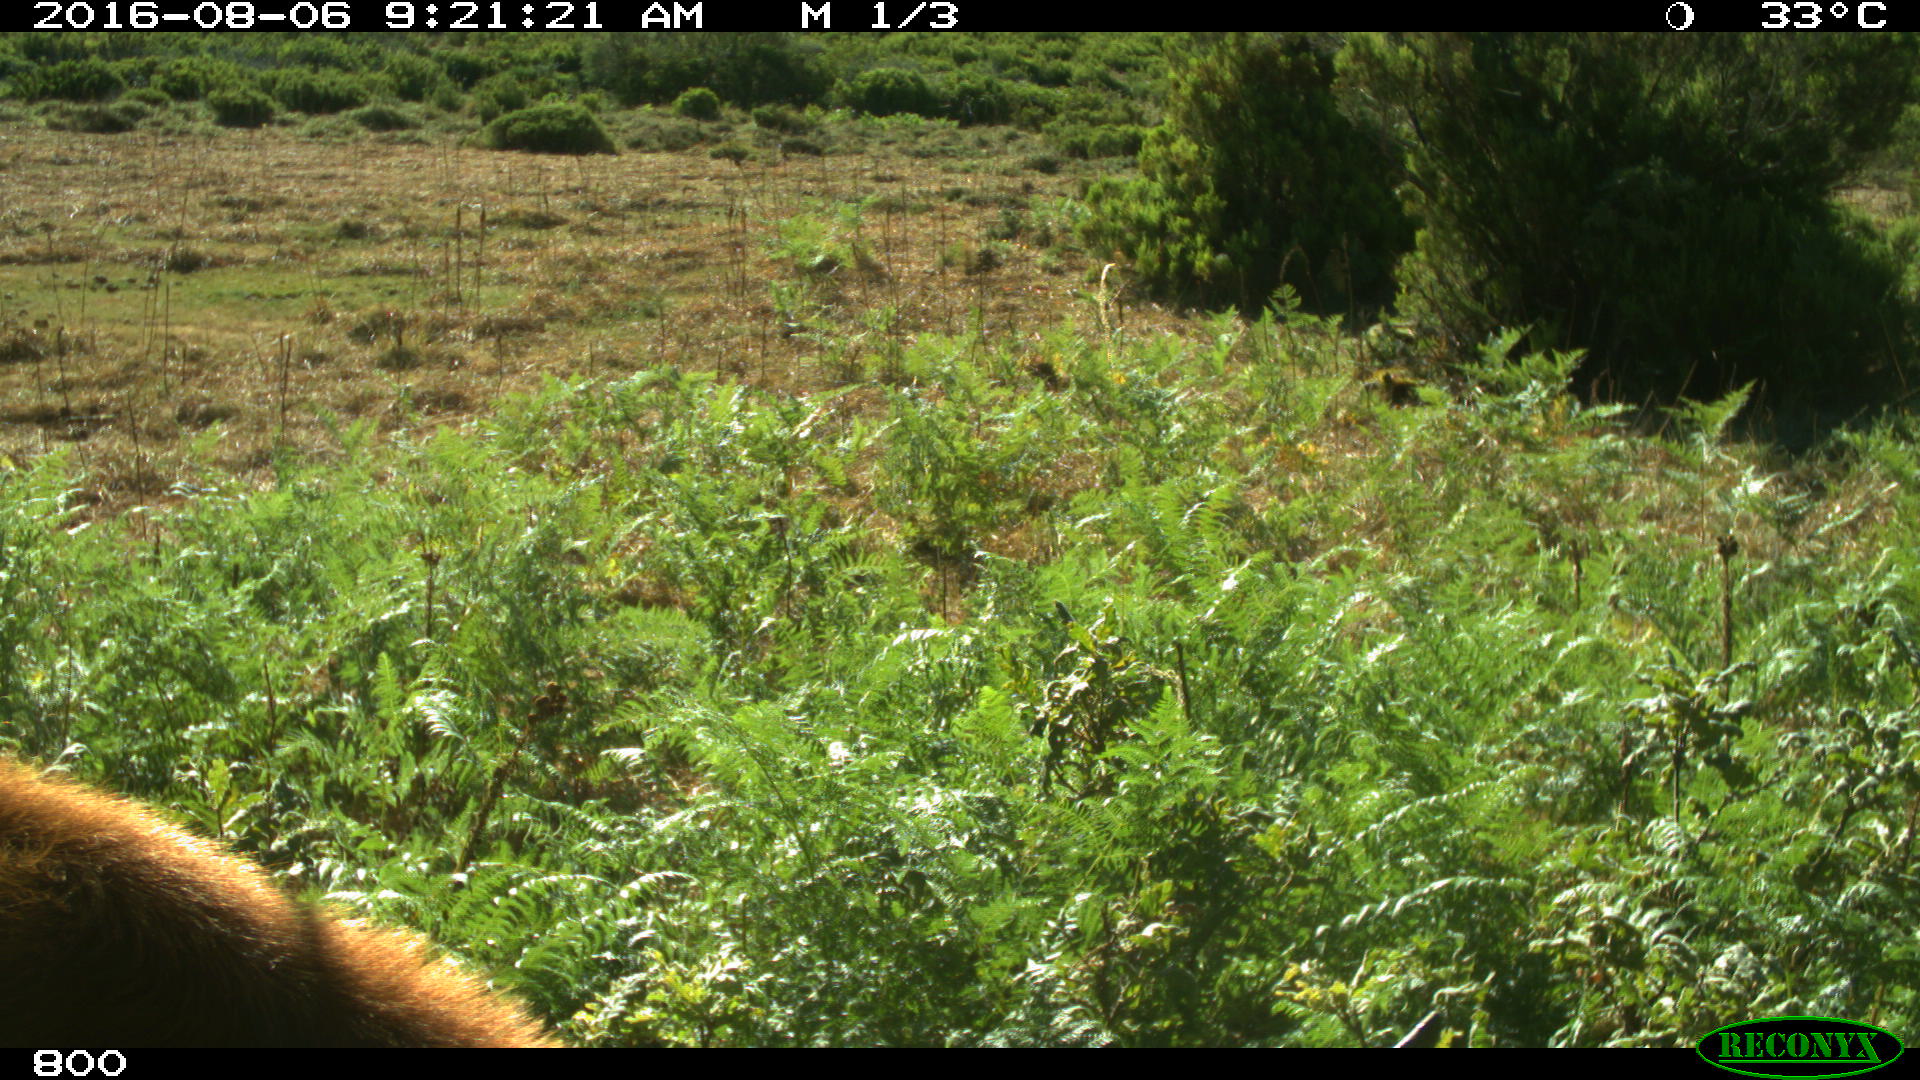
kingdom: Animalia
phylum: Chordata
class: Mammalia
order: Artiodactyla
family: Bovidae
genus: Bos
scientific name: Bos taurus
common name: Domesticated cattle
